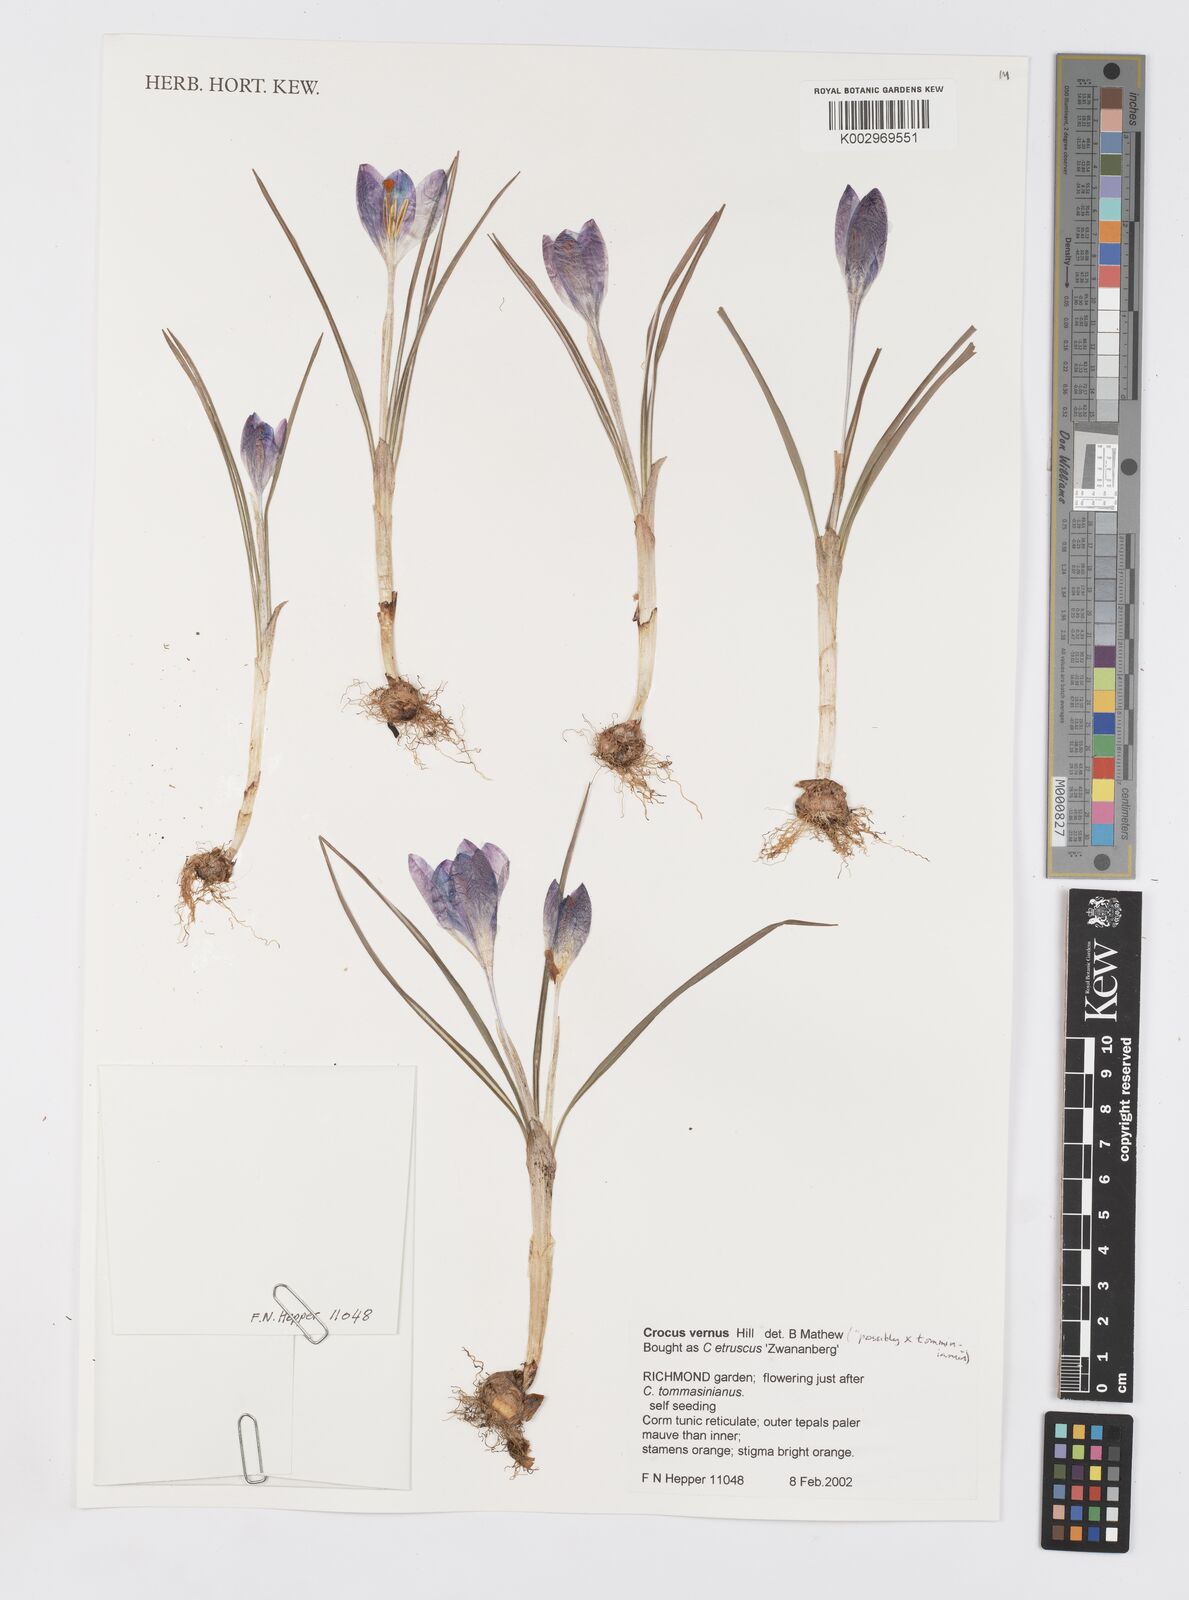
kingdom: Plantae
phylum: Tracheophyta
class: Liliopsida
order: Asparagales
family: Iridaceae
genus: Crocus
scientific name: Crocus
